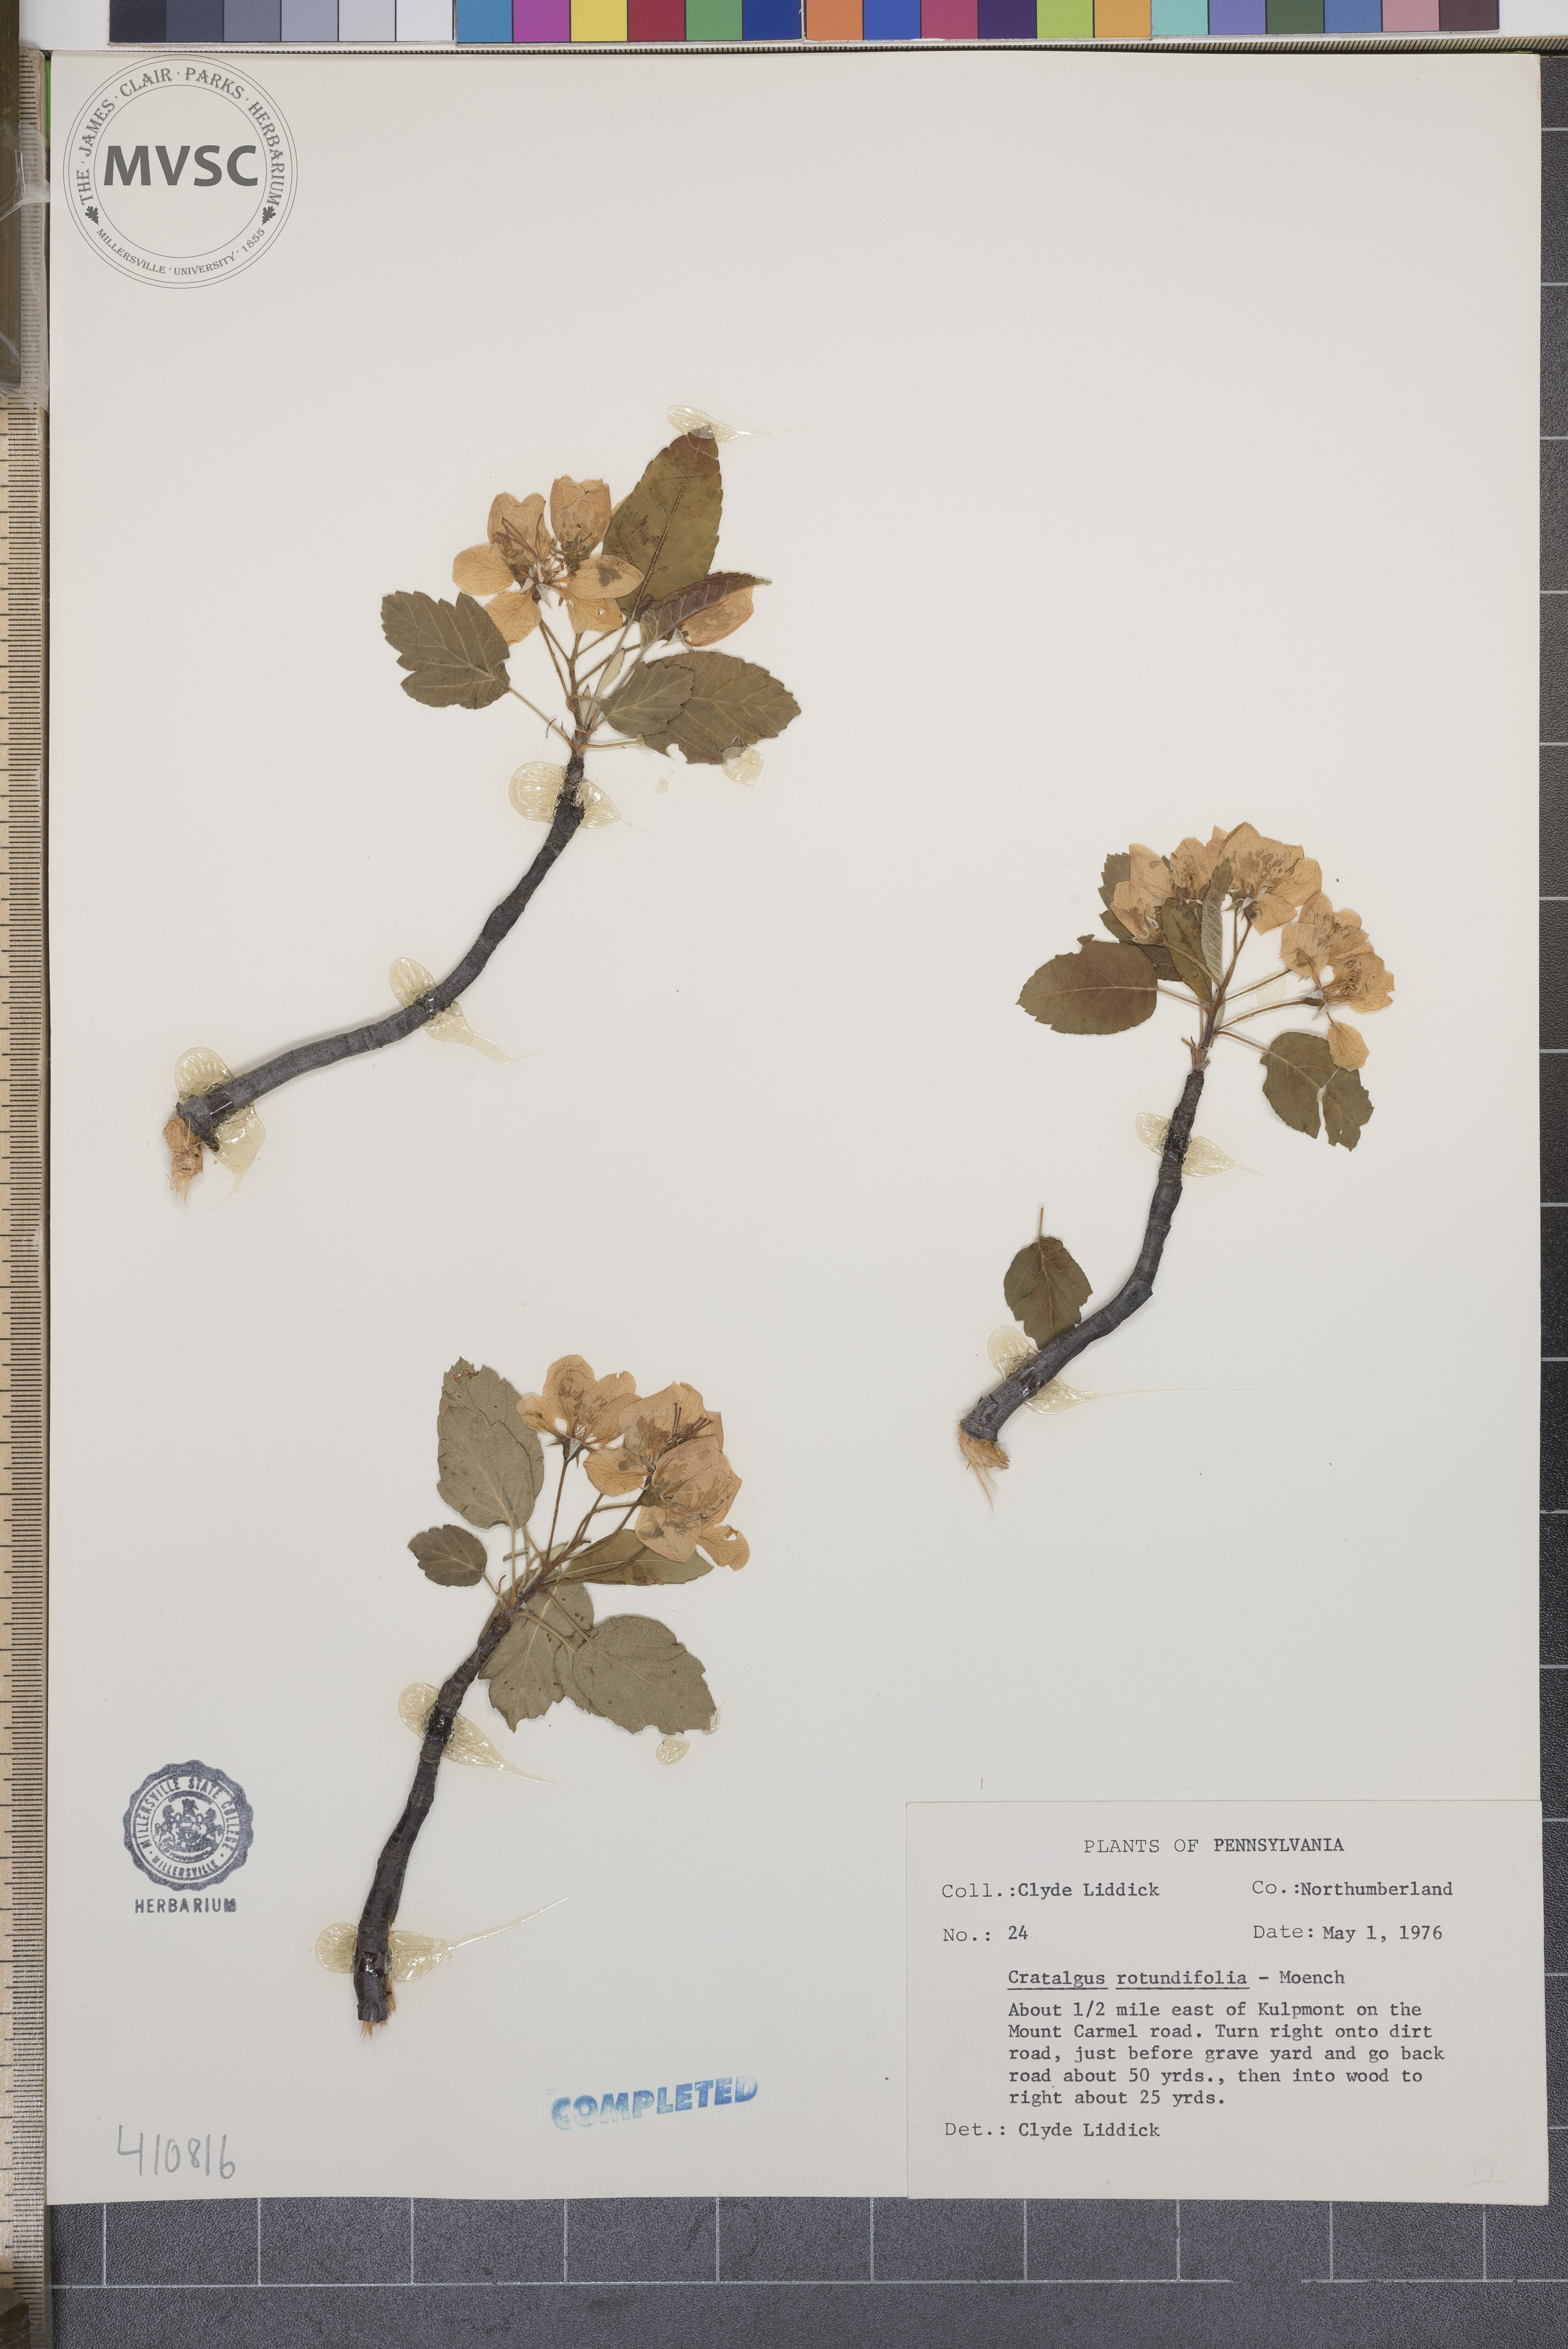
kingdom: Plantae
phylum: Tracheophyta
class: Magnoliopsida
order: Rosales
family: Rosaceae
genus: Crataegus
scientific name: Crataegus
